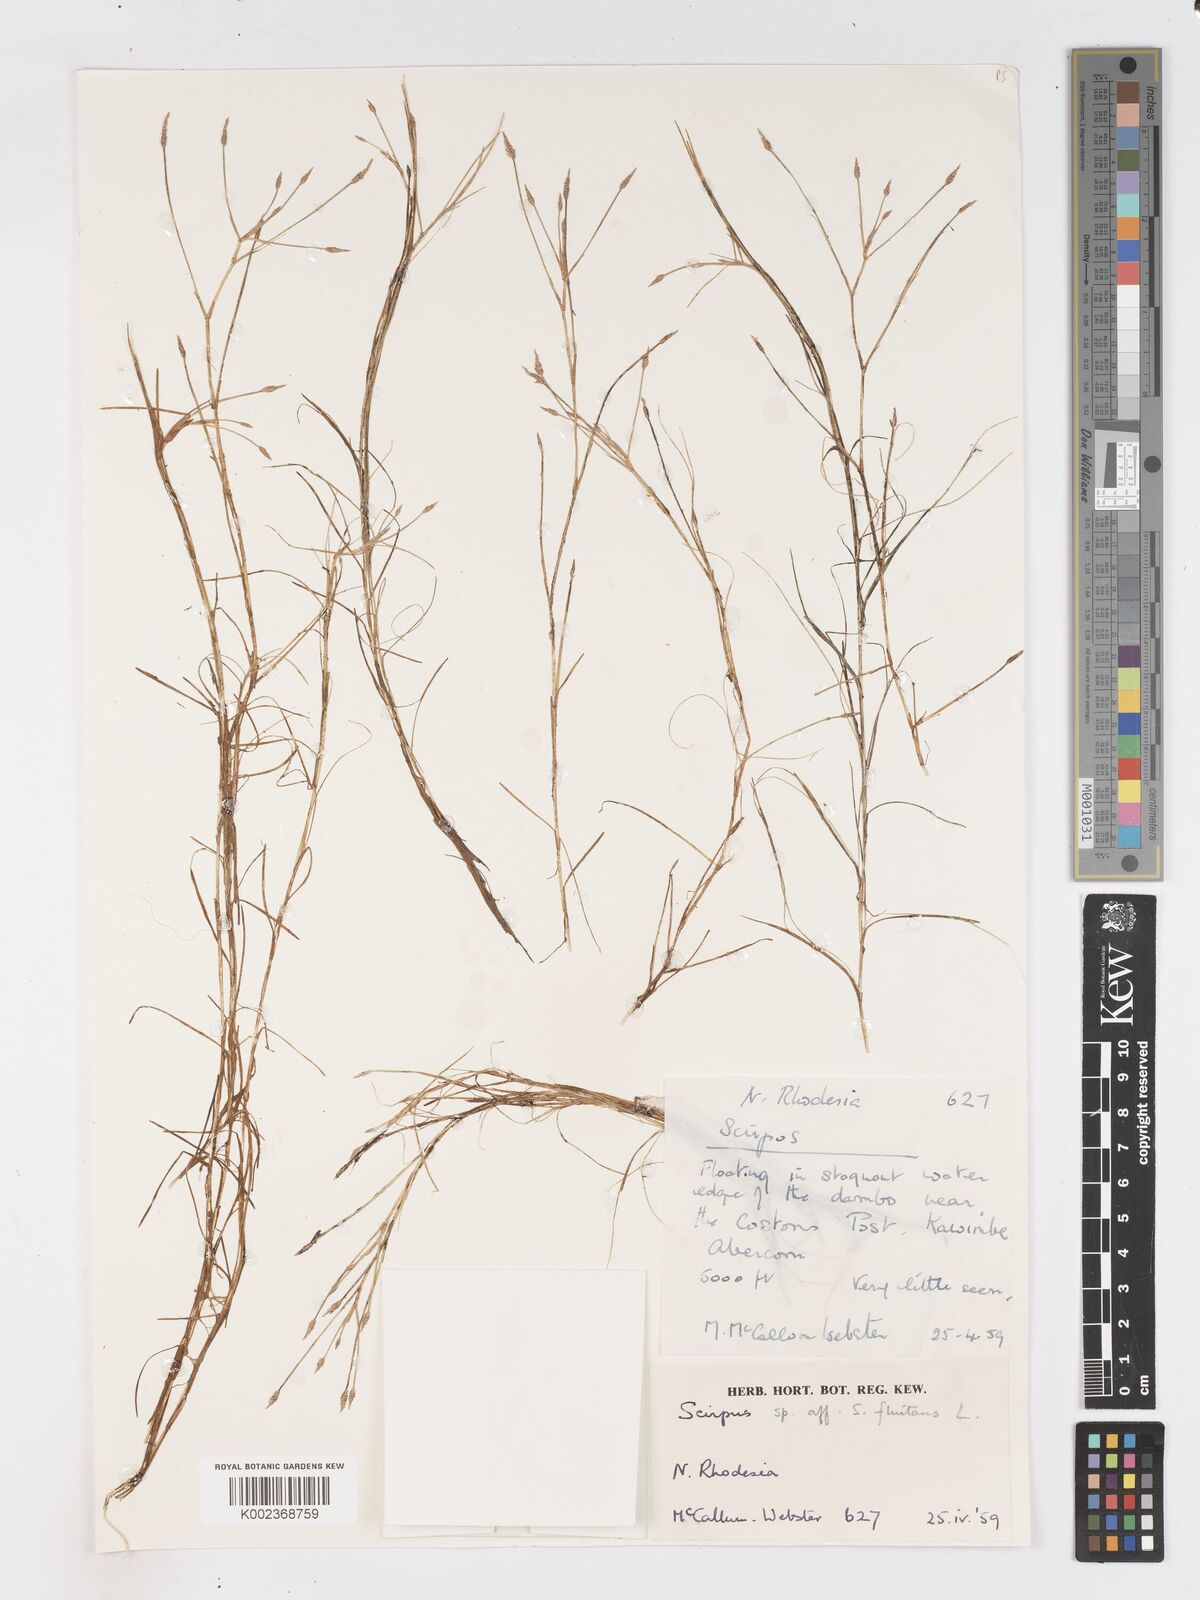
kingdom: Plantae
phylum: Tracheophyta
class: Liliopsida
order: Poales
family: Cyperaceae
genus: Isolepis
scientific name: Isolepis fluitans
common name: Floating club-rush
